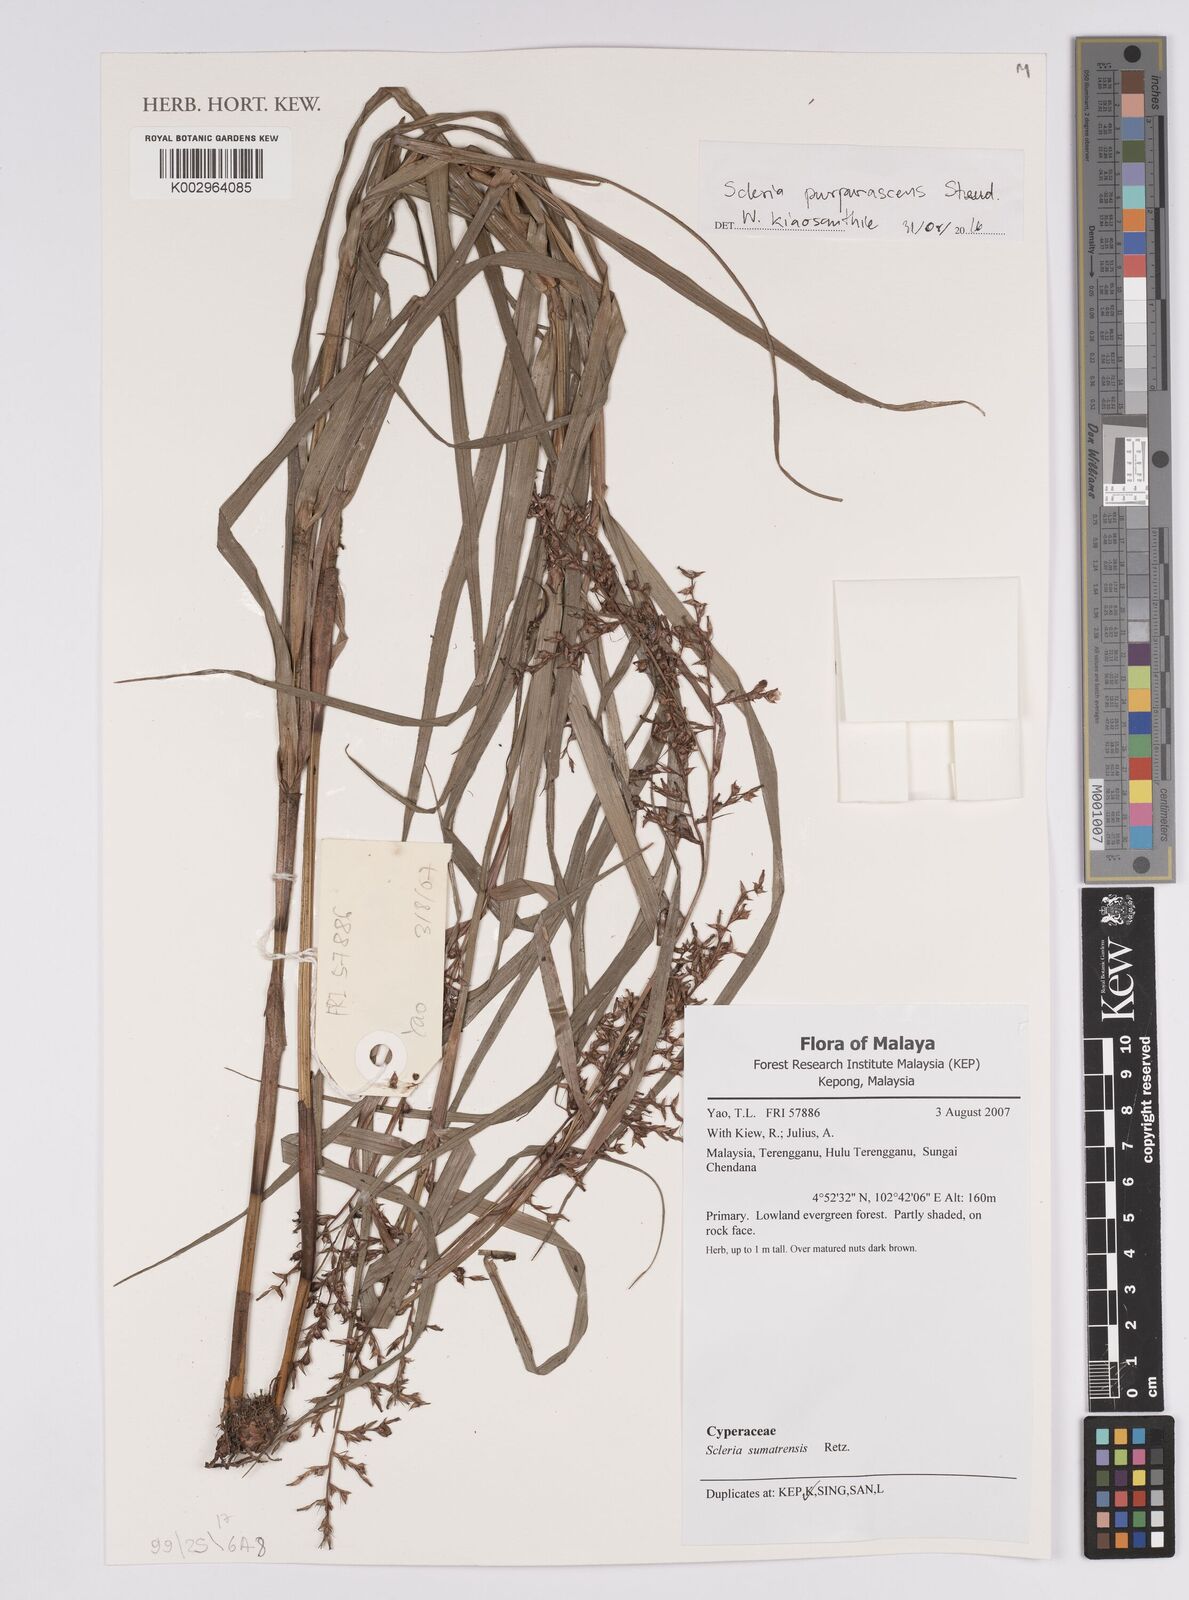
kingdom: Plantae
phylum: Tracheophyta
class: Liliopsida
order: Poales
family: Cyperaceae
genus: Scleria
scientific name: Scleria purpurascens
